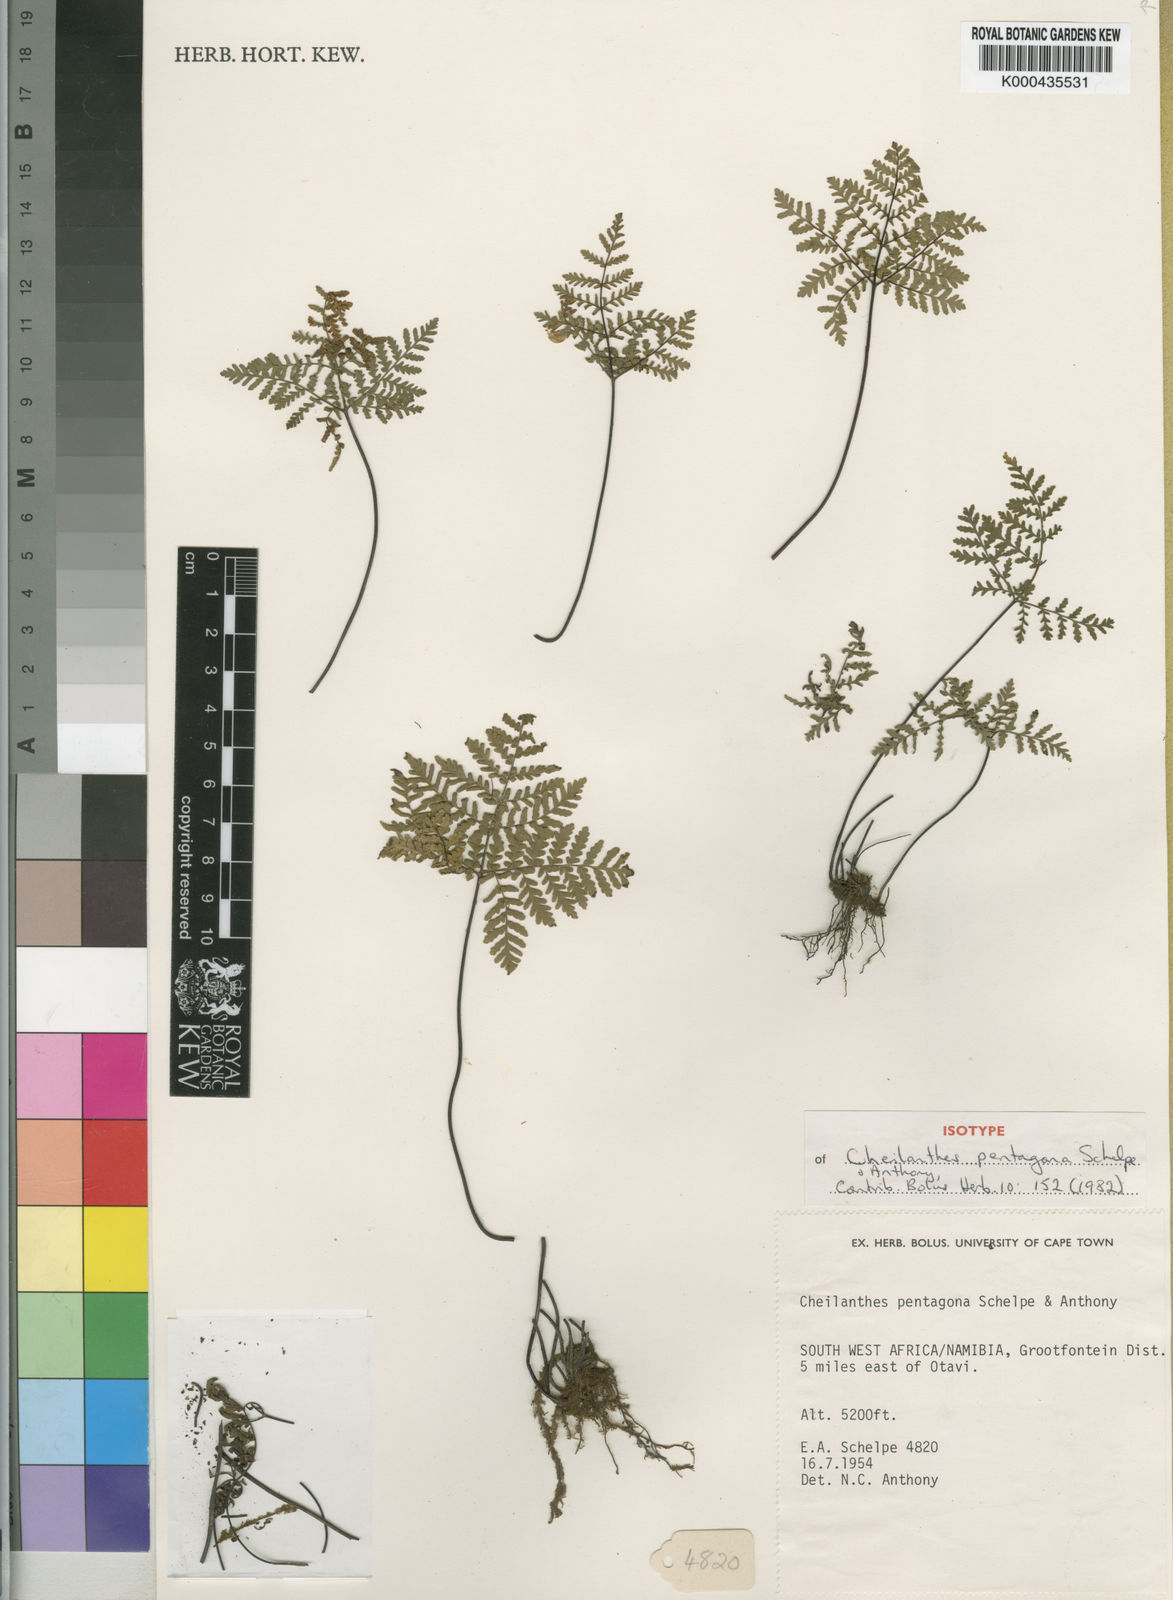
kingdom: Plantae
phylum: Tracheophyta
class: Polypodiopsida
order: Polypodiales
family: Pteridaceae
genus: Cheilanthes
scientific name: Cheilanthes pentagona
